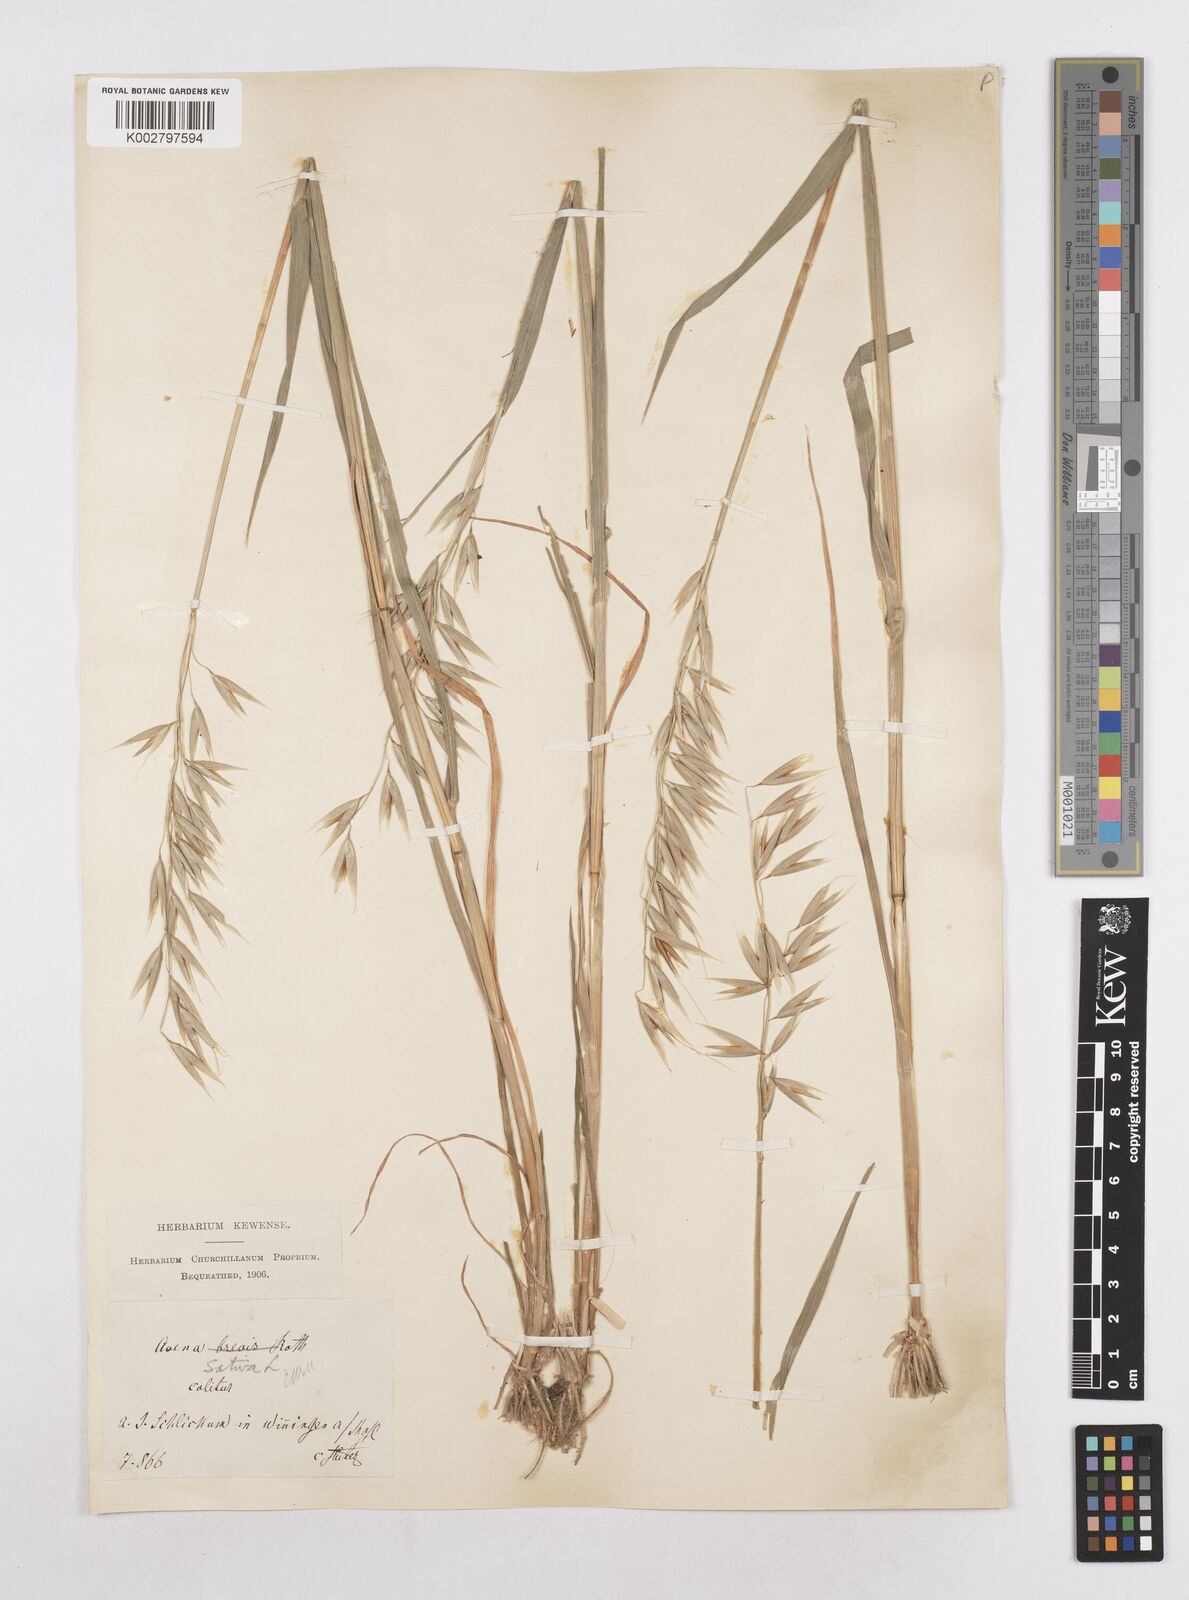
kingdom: Plantae
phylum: Tracheophyta
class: Liliopsida
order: Poales
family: Poaceae
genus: Avena
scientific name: Avena sativa
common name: Oat
